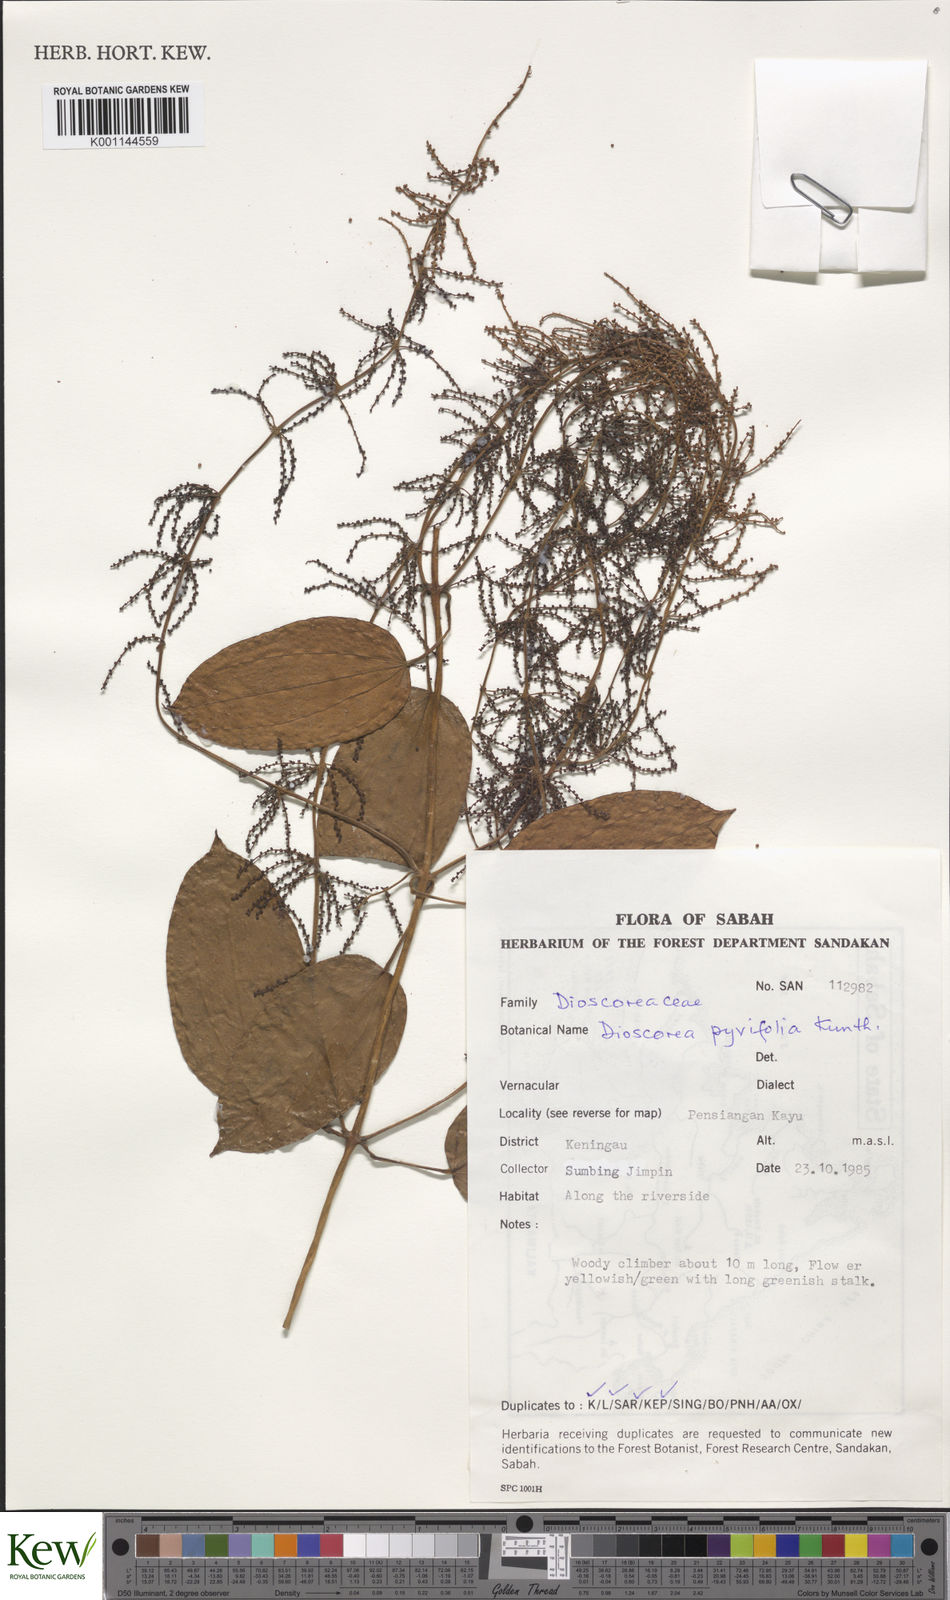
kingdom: Plantae
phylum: Tracheophyta
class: Liliopsida
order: Dioscoreales
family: Dioscoreaceae
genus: Dioscorea
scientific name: Dioscorea pyrifolia
